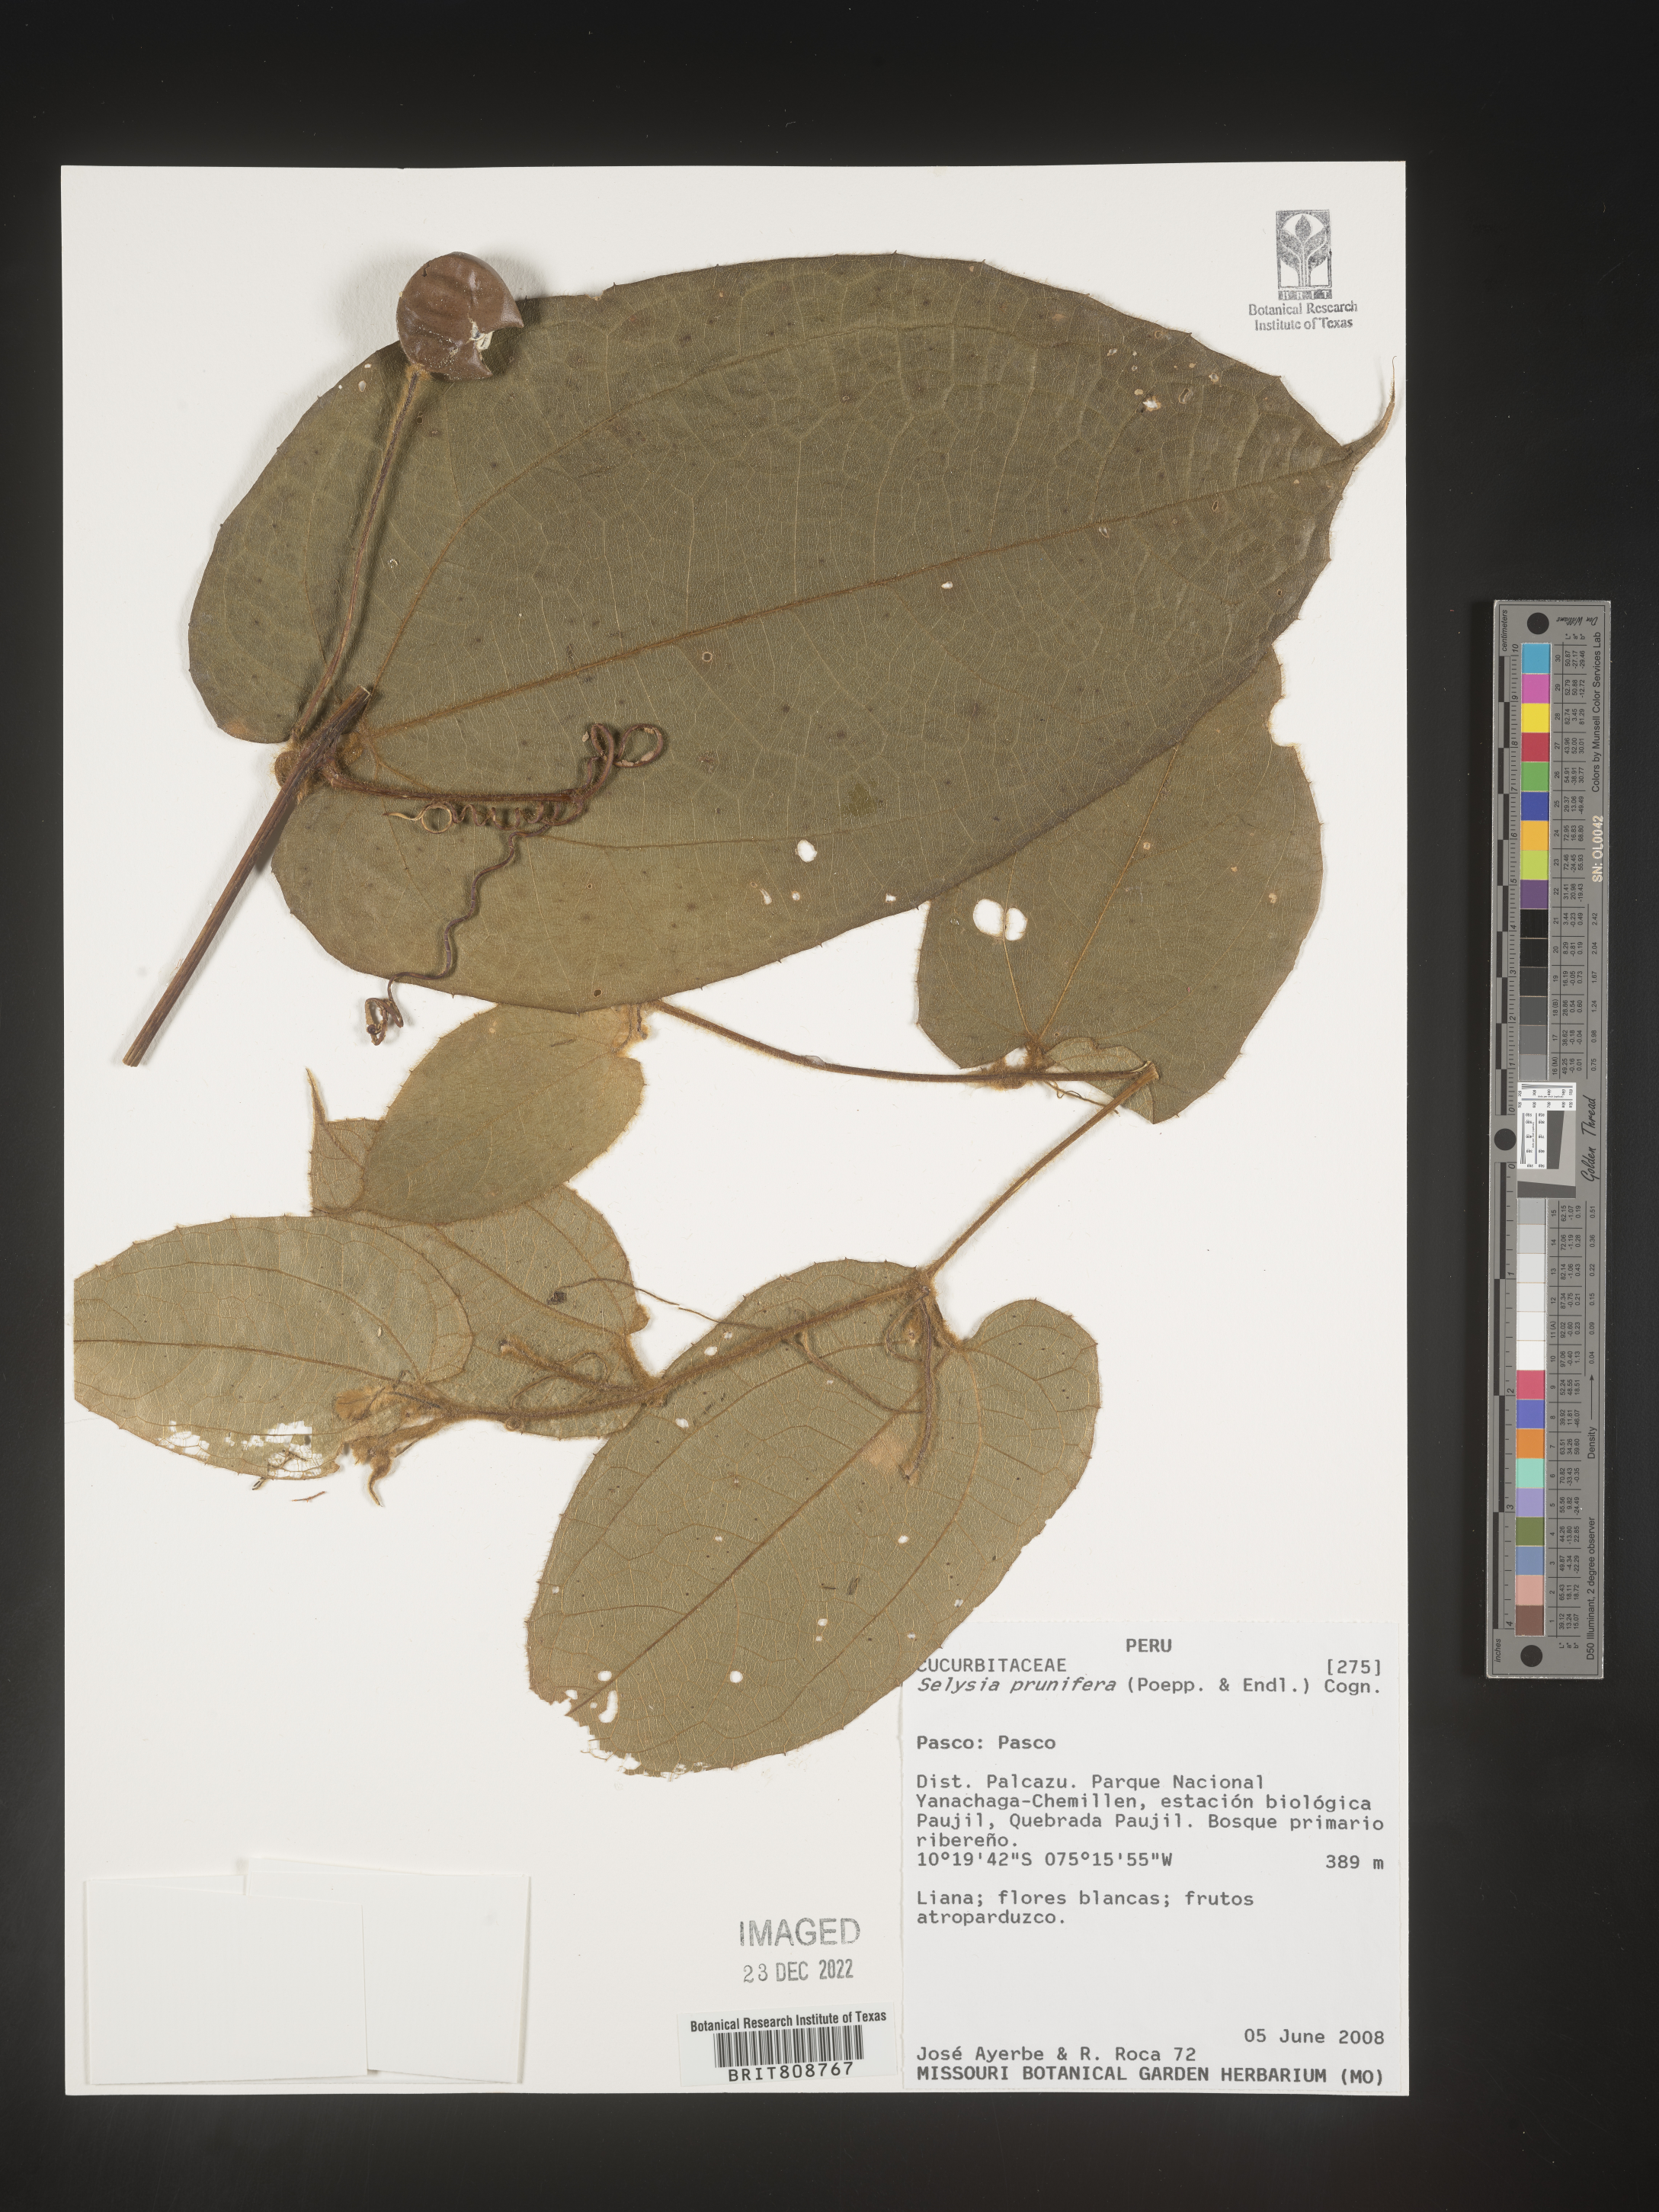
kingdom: Plantae
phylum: Tracheophyta
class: Magnoliopsida
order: Cucurbitales
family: Cucurbitaceae
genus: Selysia
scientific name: Selysia
